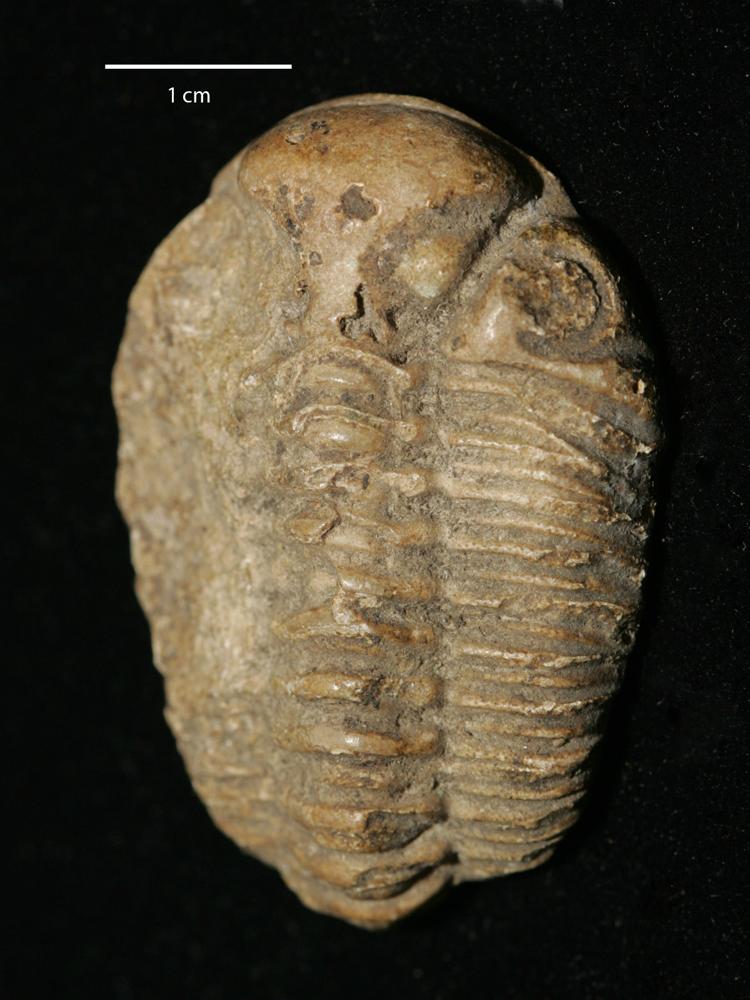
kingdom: Animalia
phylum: Arthropoda
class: Trilobita
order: Phacopida
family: Pterygometopidae
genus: Chasmops
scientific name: Chasmops odini
